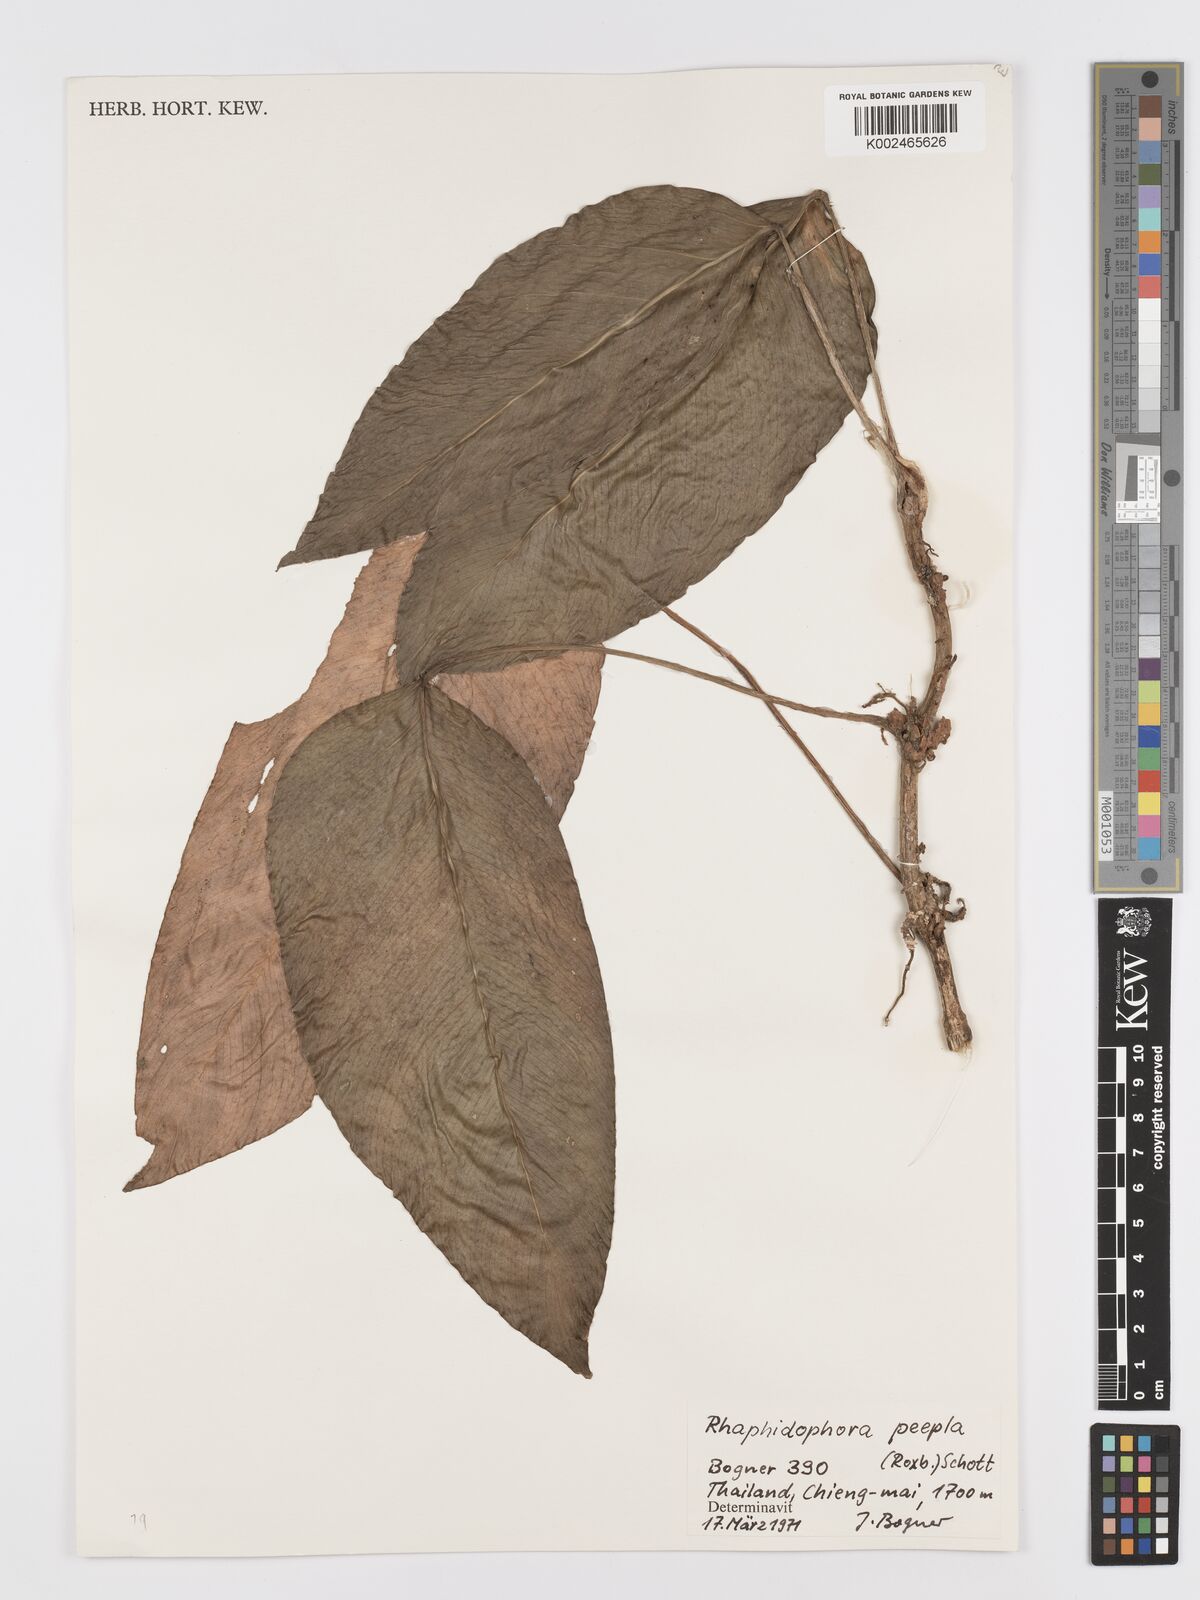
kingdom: Plantae
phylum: Tracheophyta
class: Liliopsida
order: Alismatales
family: Araceae
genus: Rhaphidophora
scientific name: Rhaphidophora peepla
